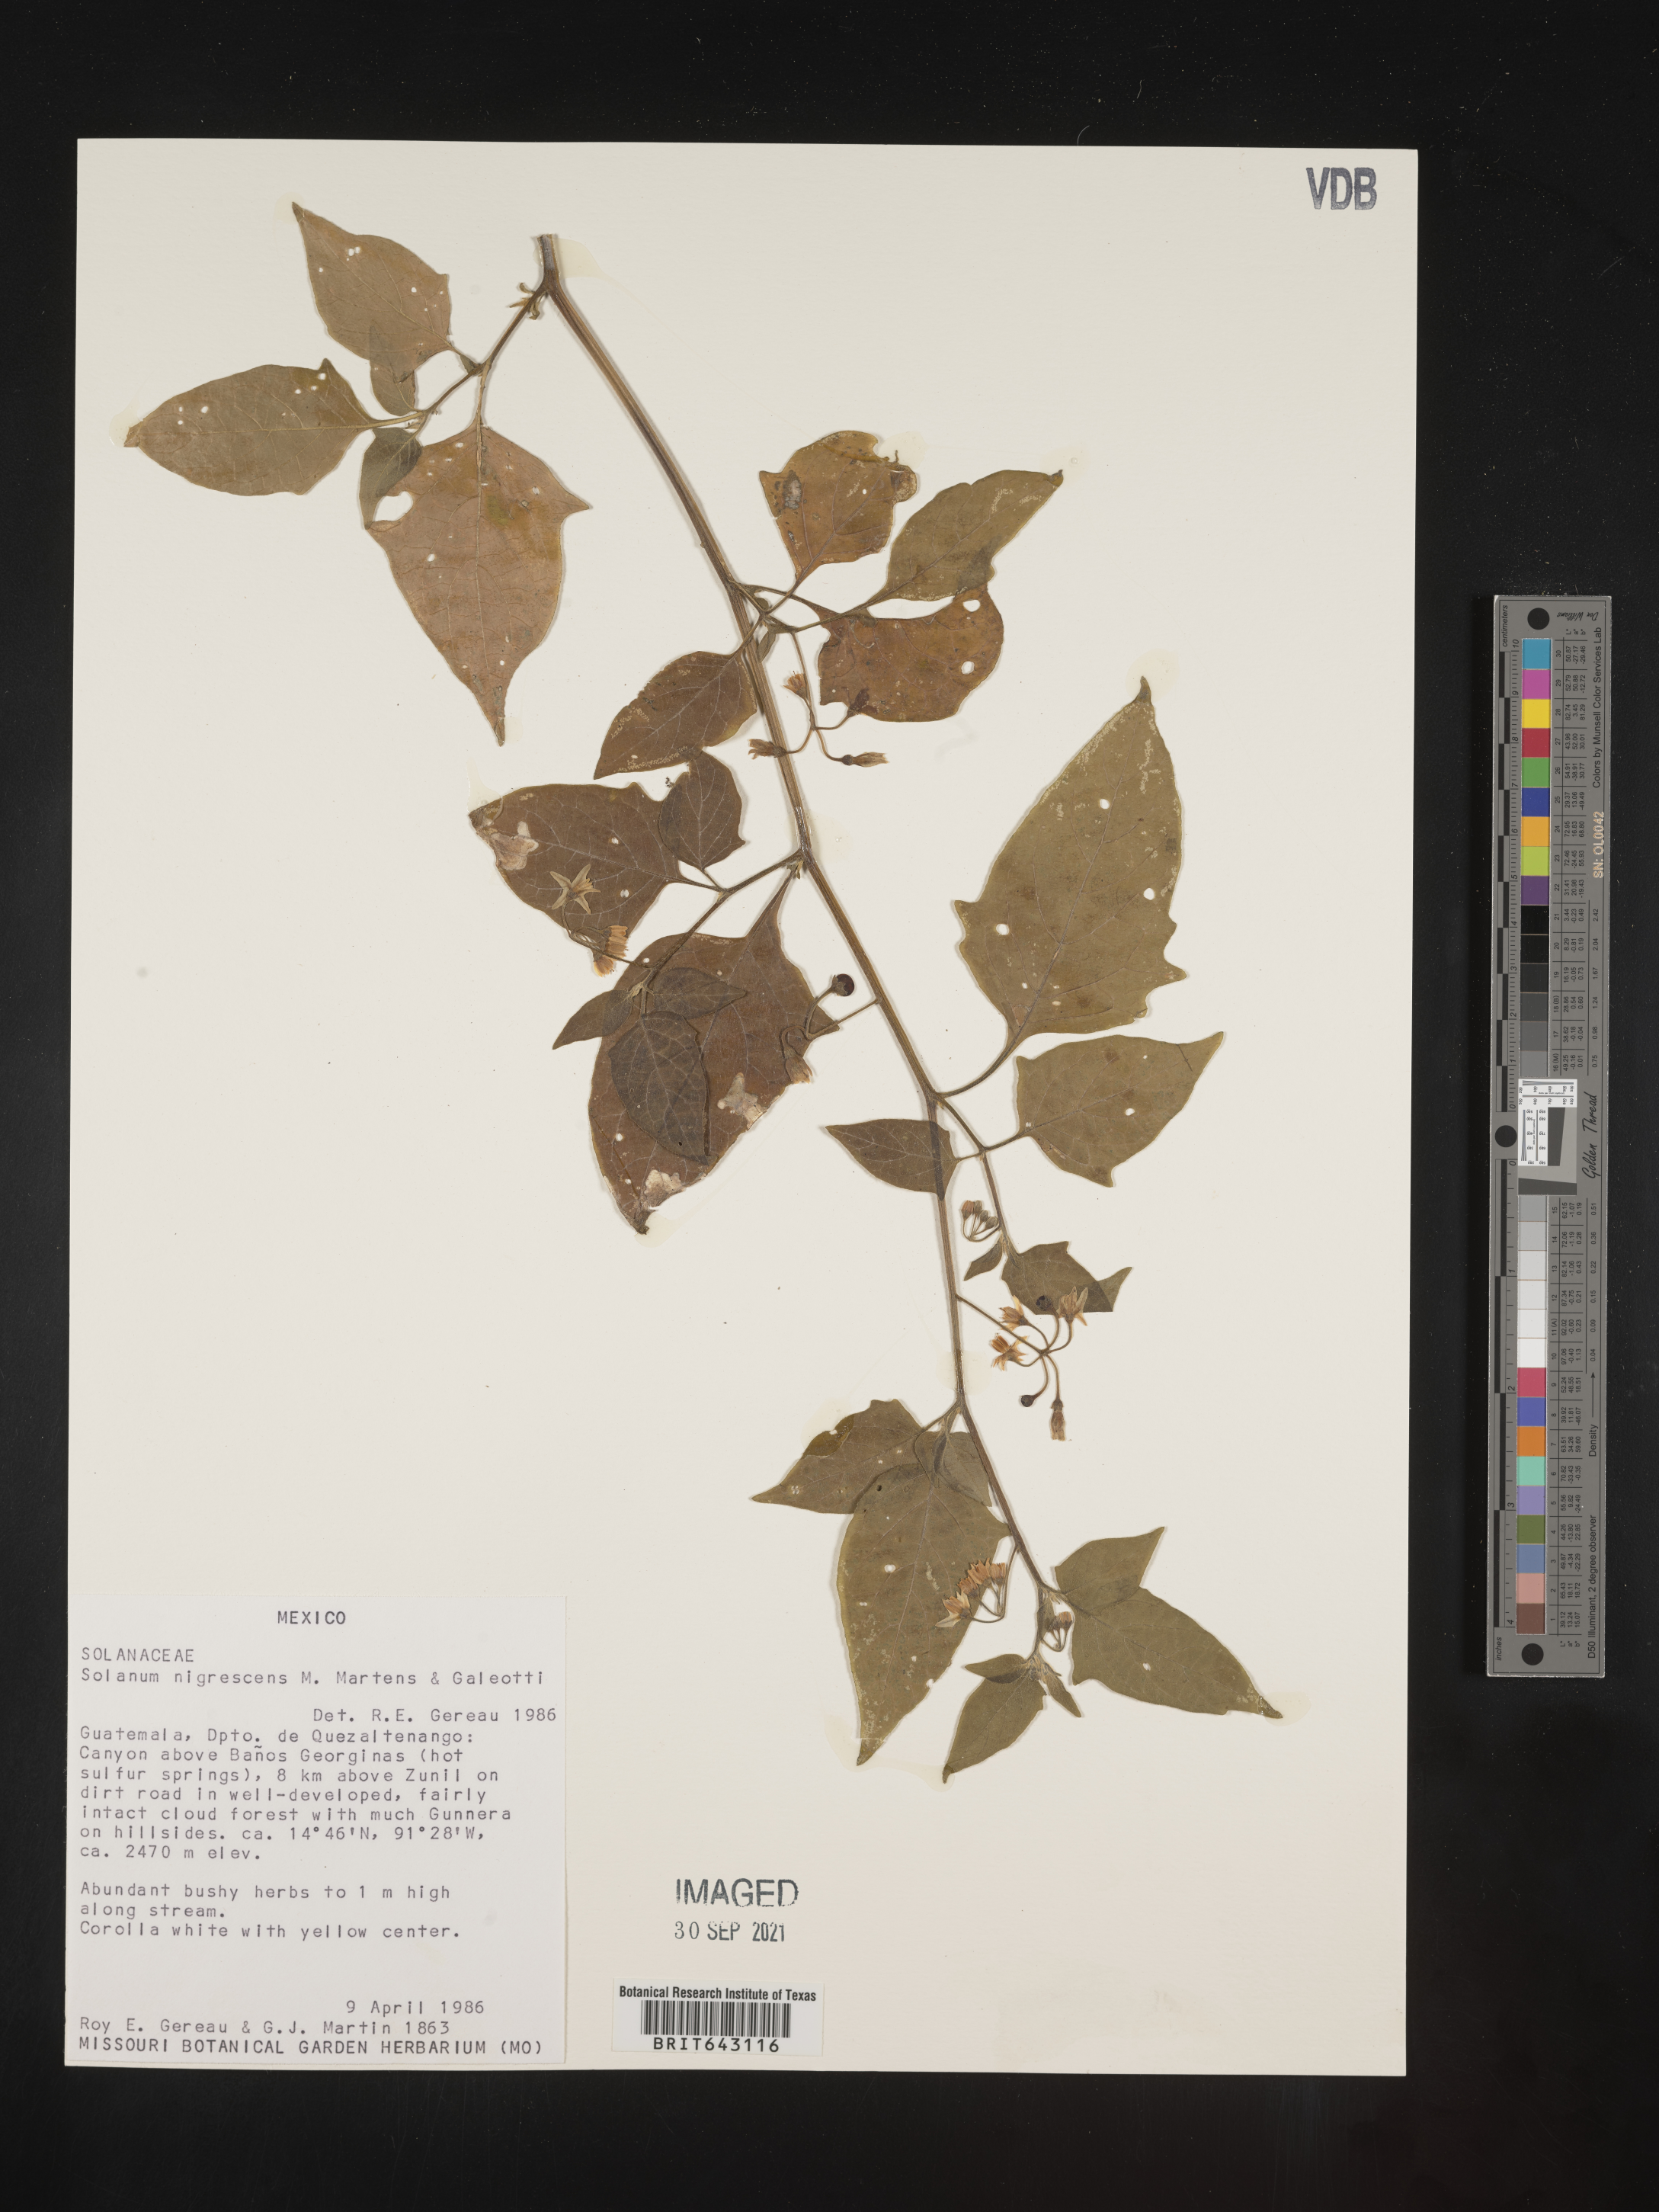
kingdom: Plantae
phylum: Tracheophyta
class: Magnoliopsida
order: Solanales
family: Solanaceae
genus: Solanum
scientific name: Solanum
